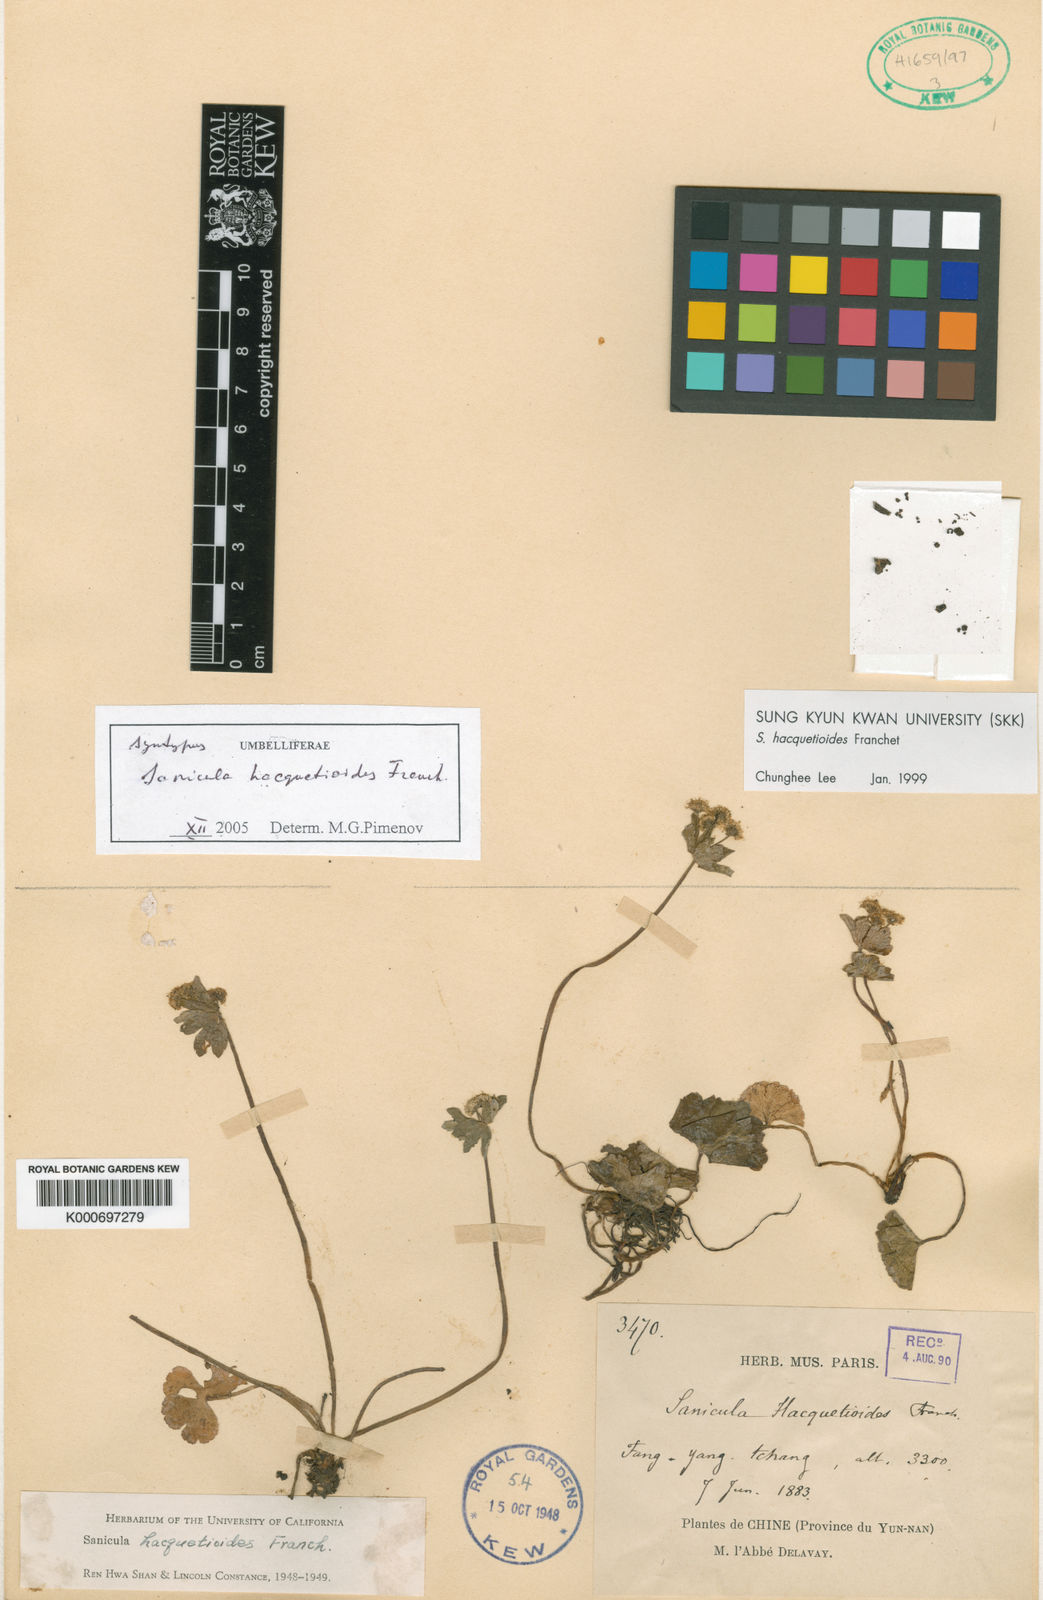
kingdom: Plantae
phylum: Tracheophyta
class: Magnoliopsida
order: Apiales
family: Apiaceae
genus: Sanicula
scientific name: Sanicula hacquetioides
